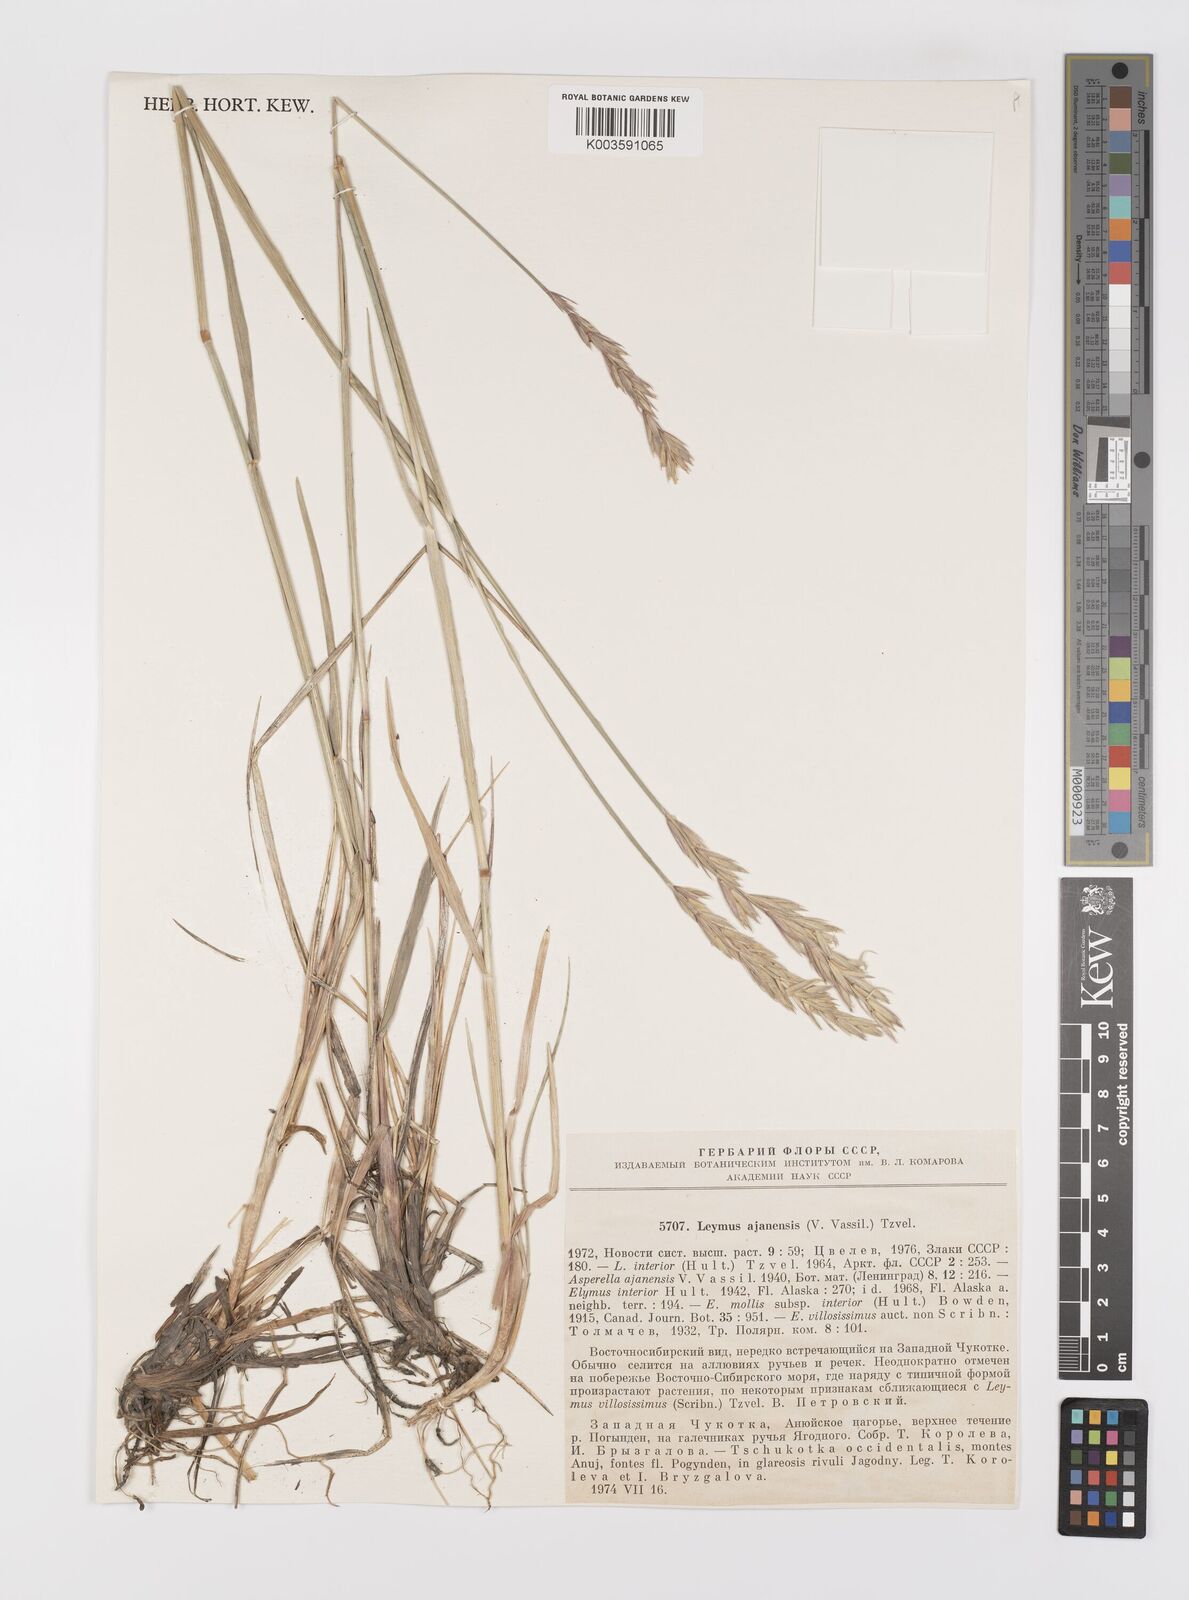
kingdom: Plantae
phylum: Tracheophyta
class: Liliopsida
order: Poales
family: Poaceae
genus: Leymus
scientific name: Leymus ajanensis
